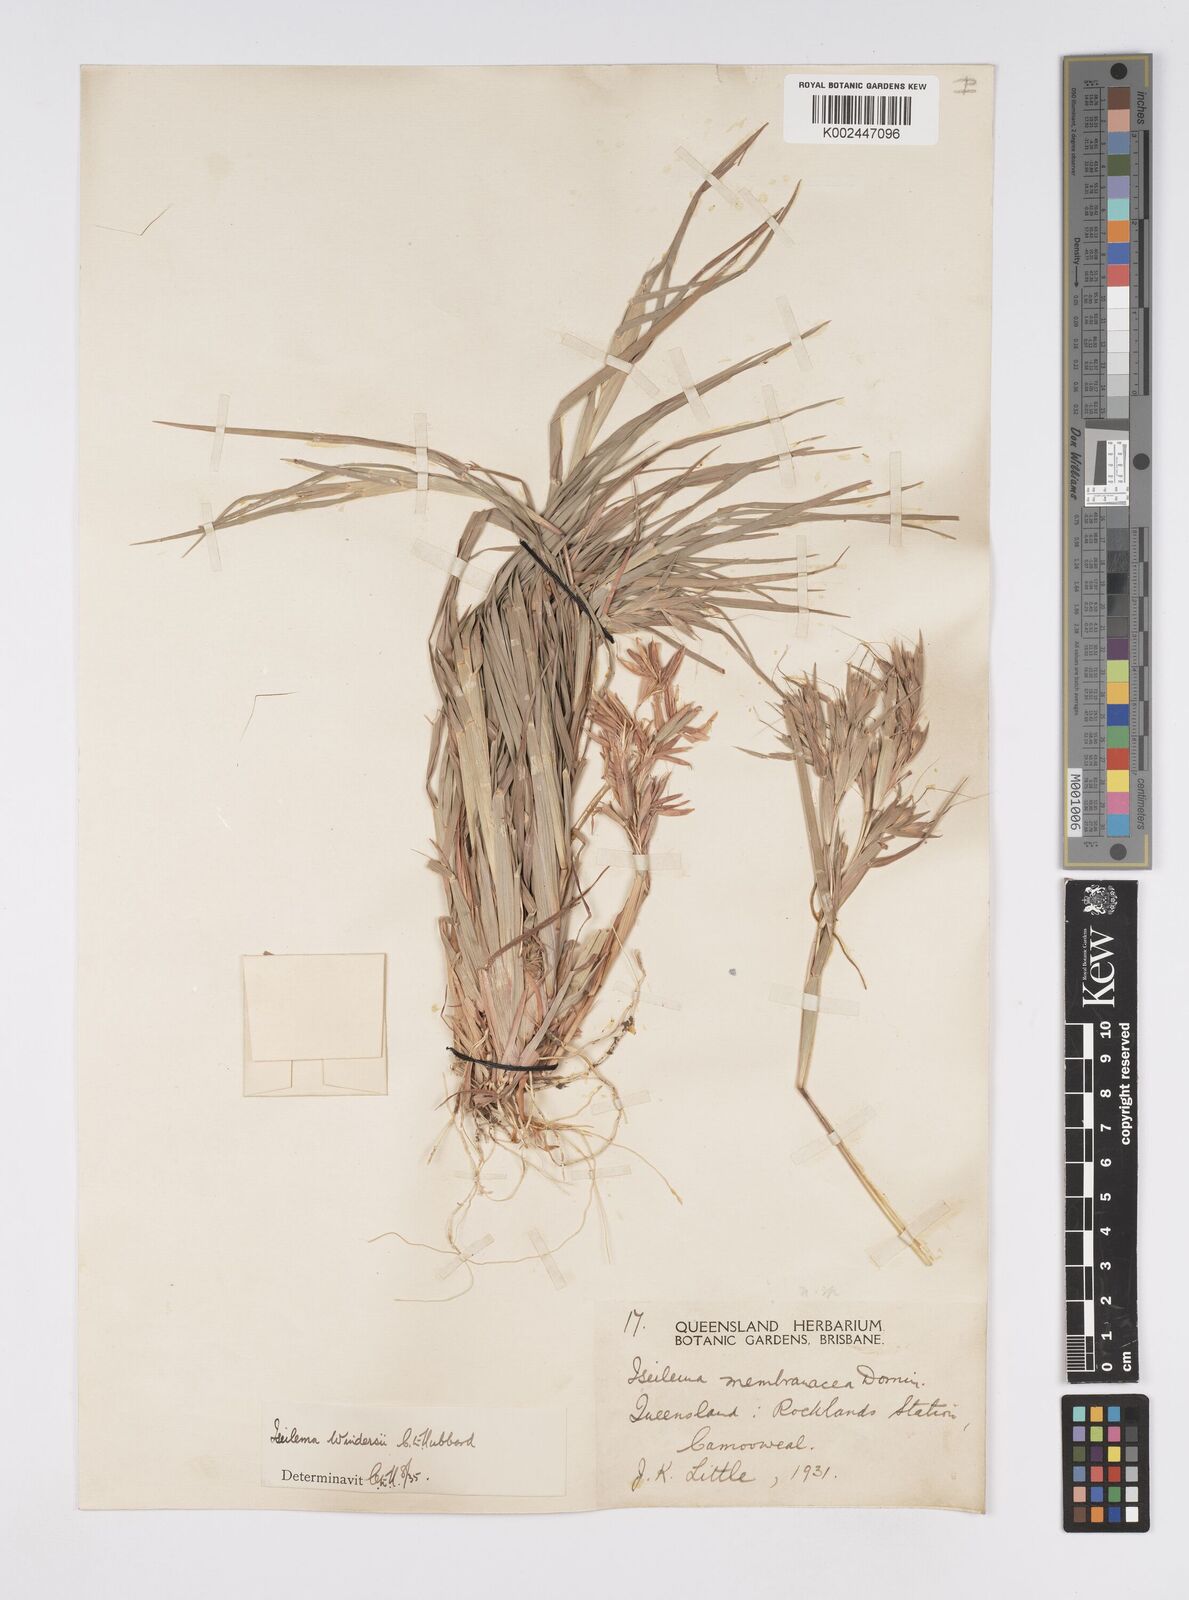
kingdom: Plantae
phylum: Tracheophyta
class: Liliopsida
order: Poales
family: Poaceae
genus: Iseilema
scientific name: Iseilema windersii
